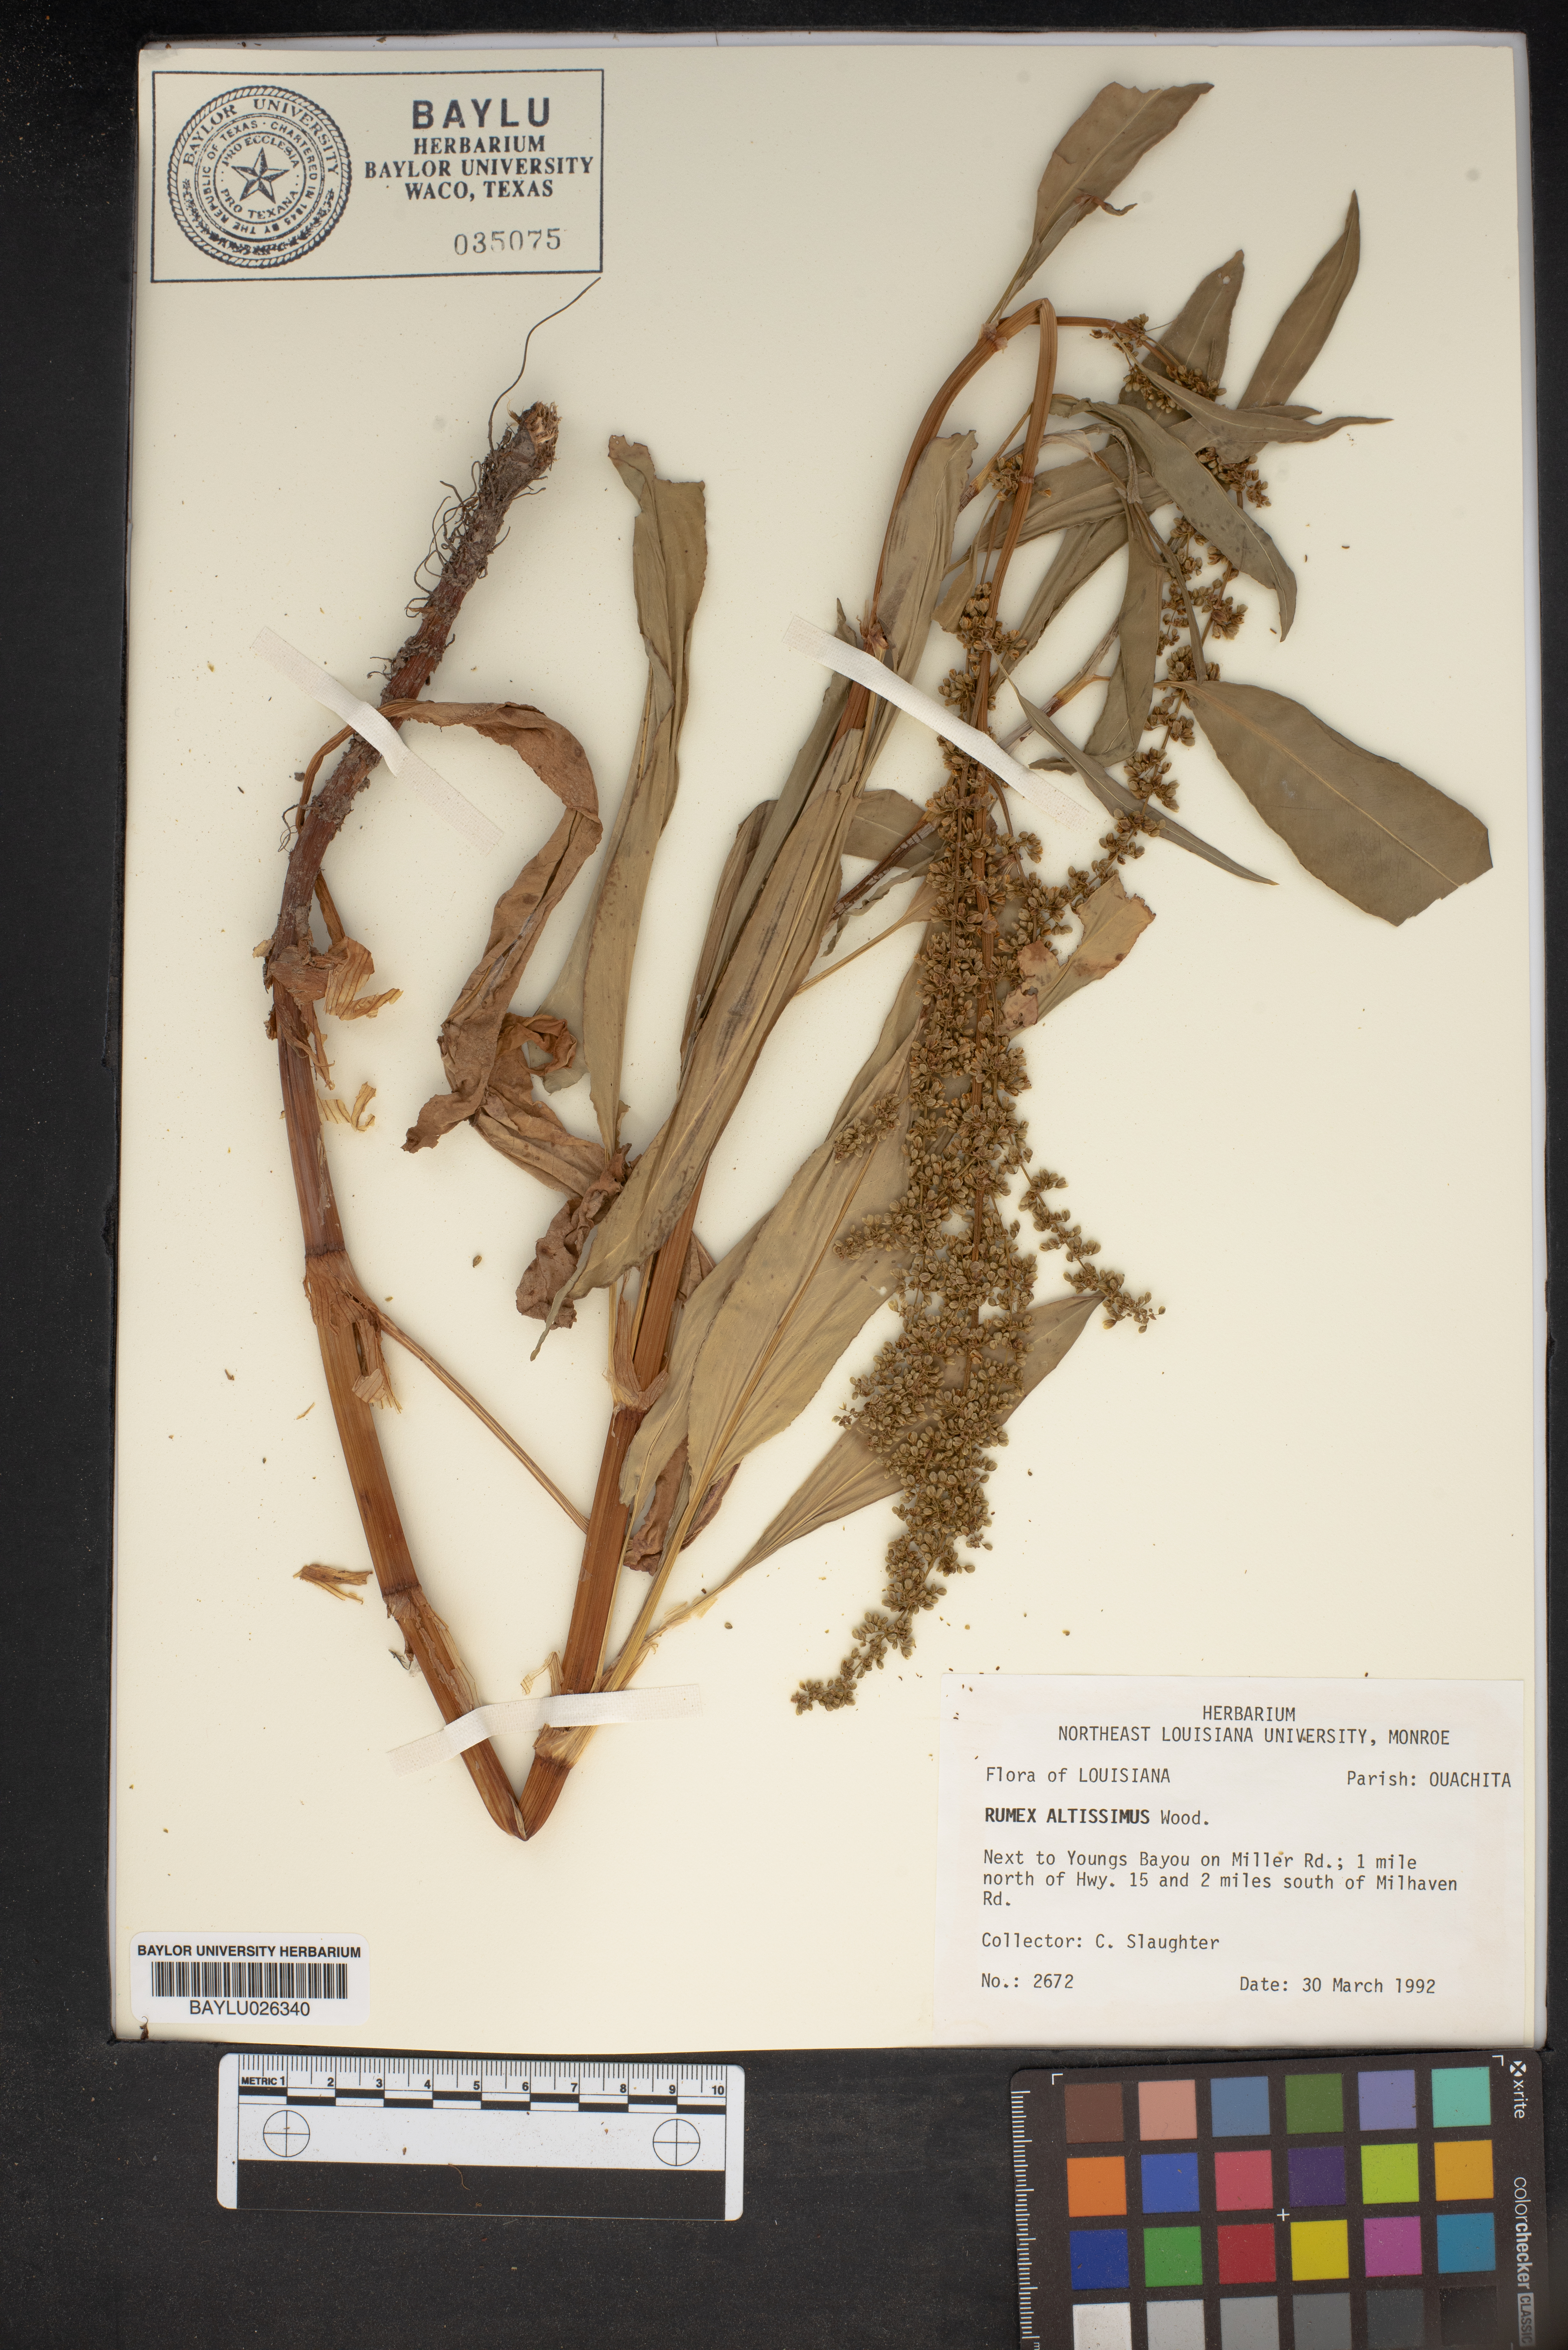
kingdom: Plantae
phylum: Tracheophyta
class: Magnoliopsida
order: Caryophyllales
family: Polygonaceae
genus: Rumex
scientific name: Rumex altissimus
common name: Smooth dock
